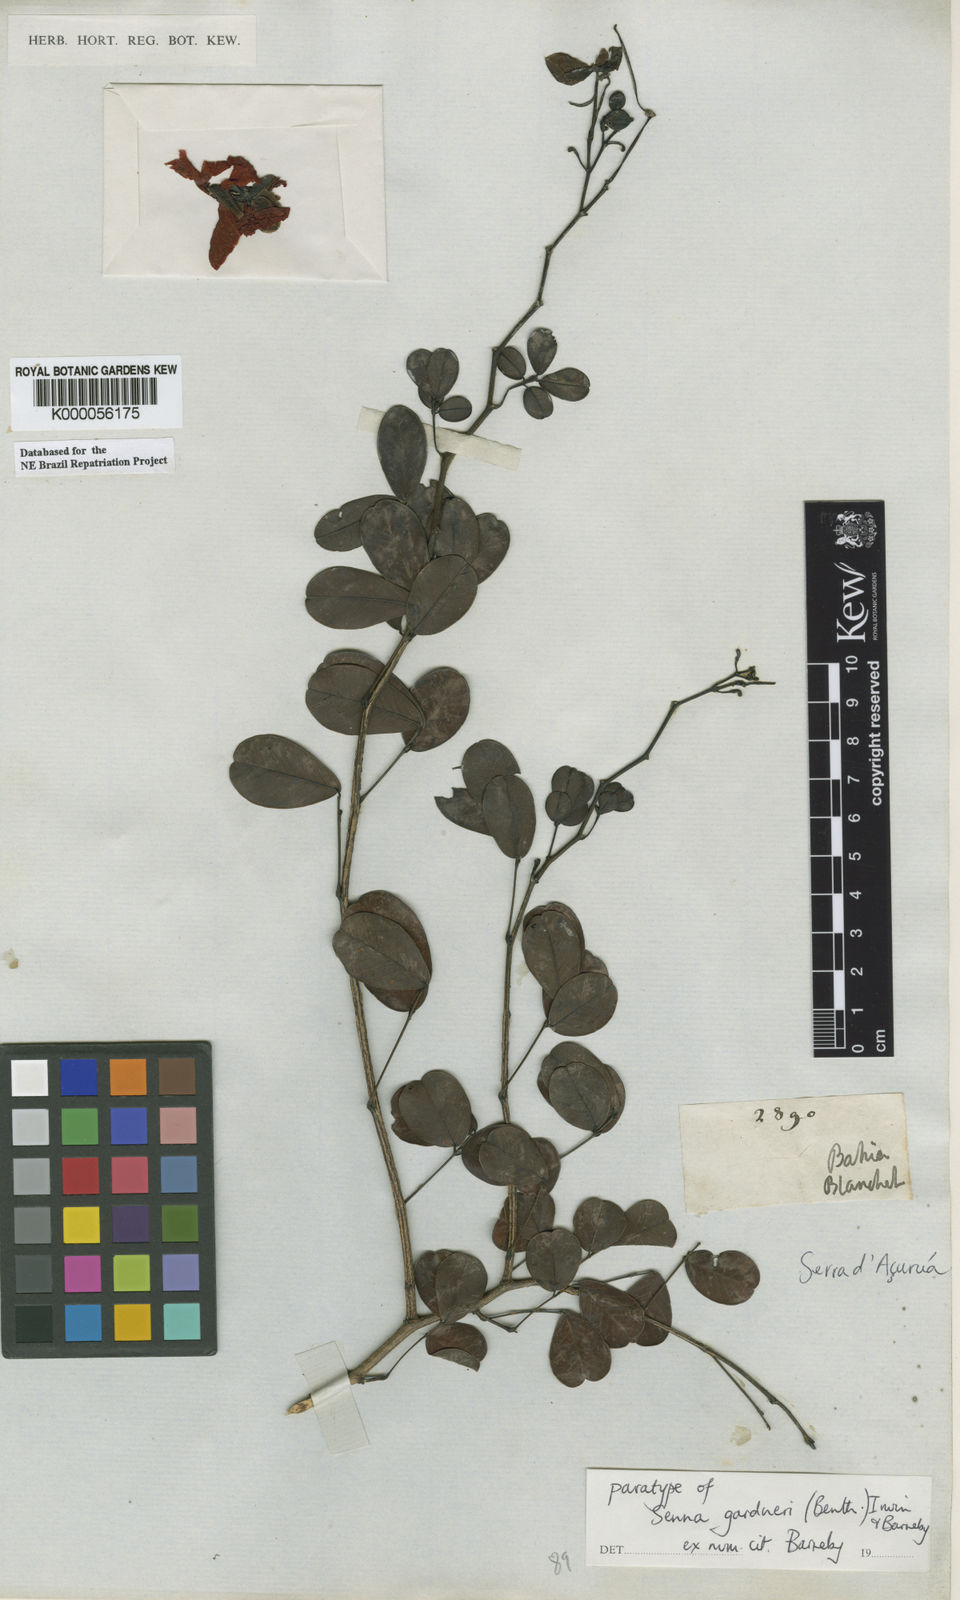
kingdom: Plantae
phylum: Tracheophyta
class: Magnoliopsida
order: Fabales
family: Fabaceae
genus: Senna
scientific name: Senna gardneri
